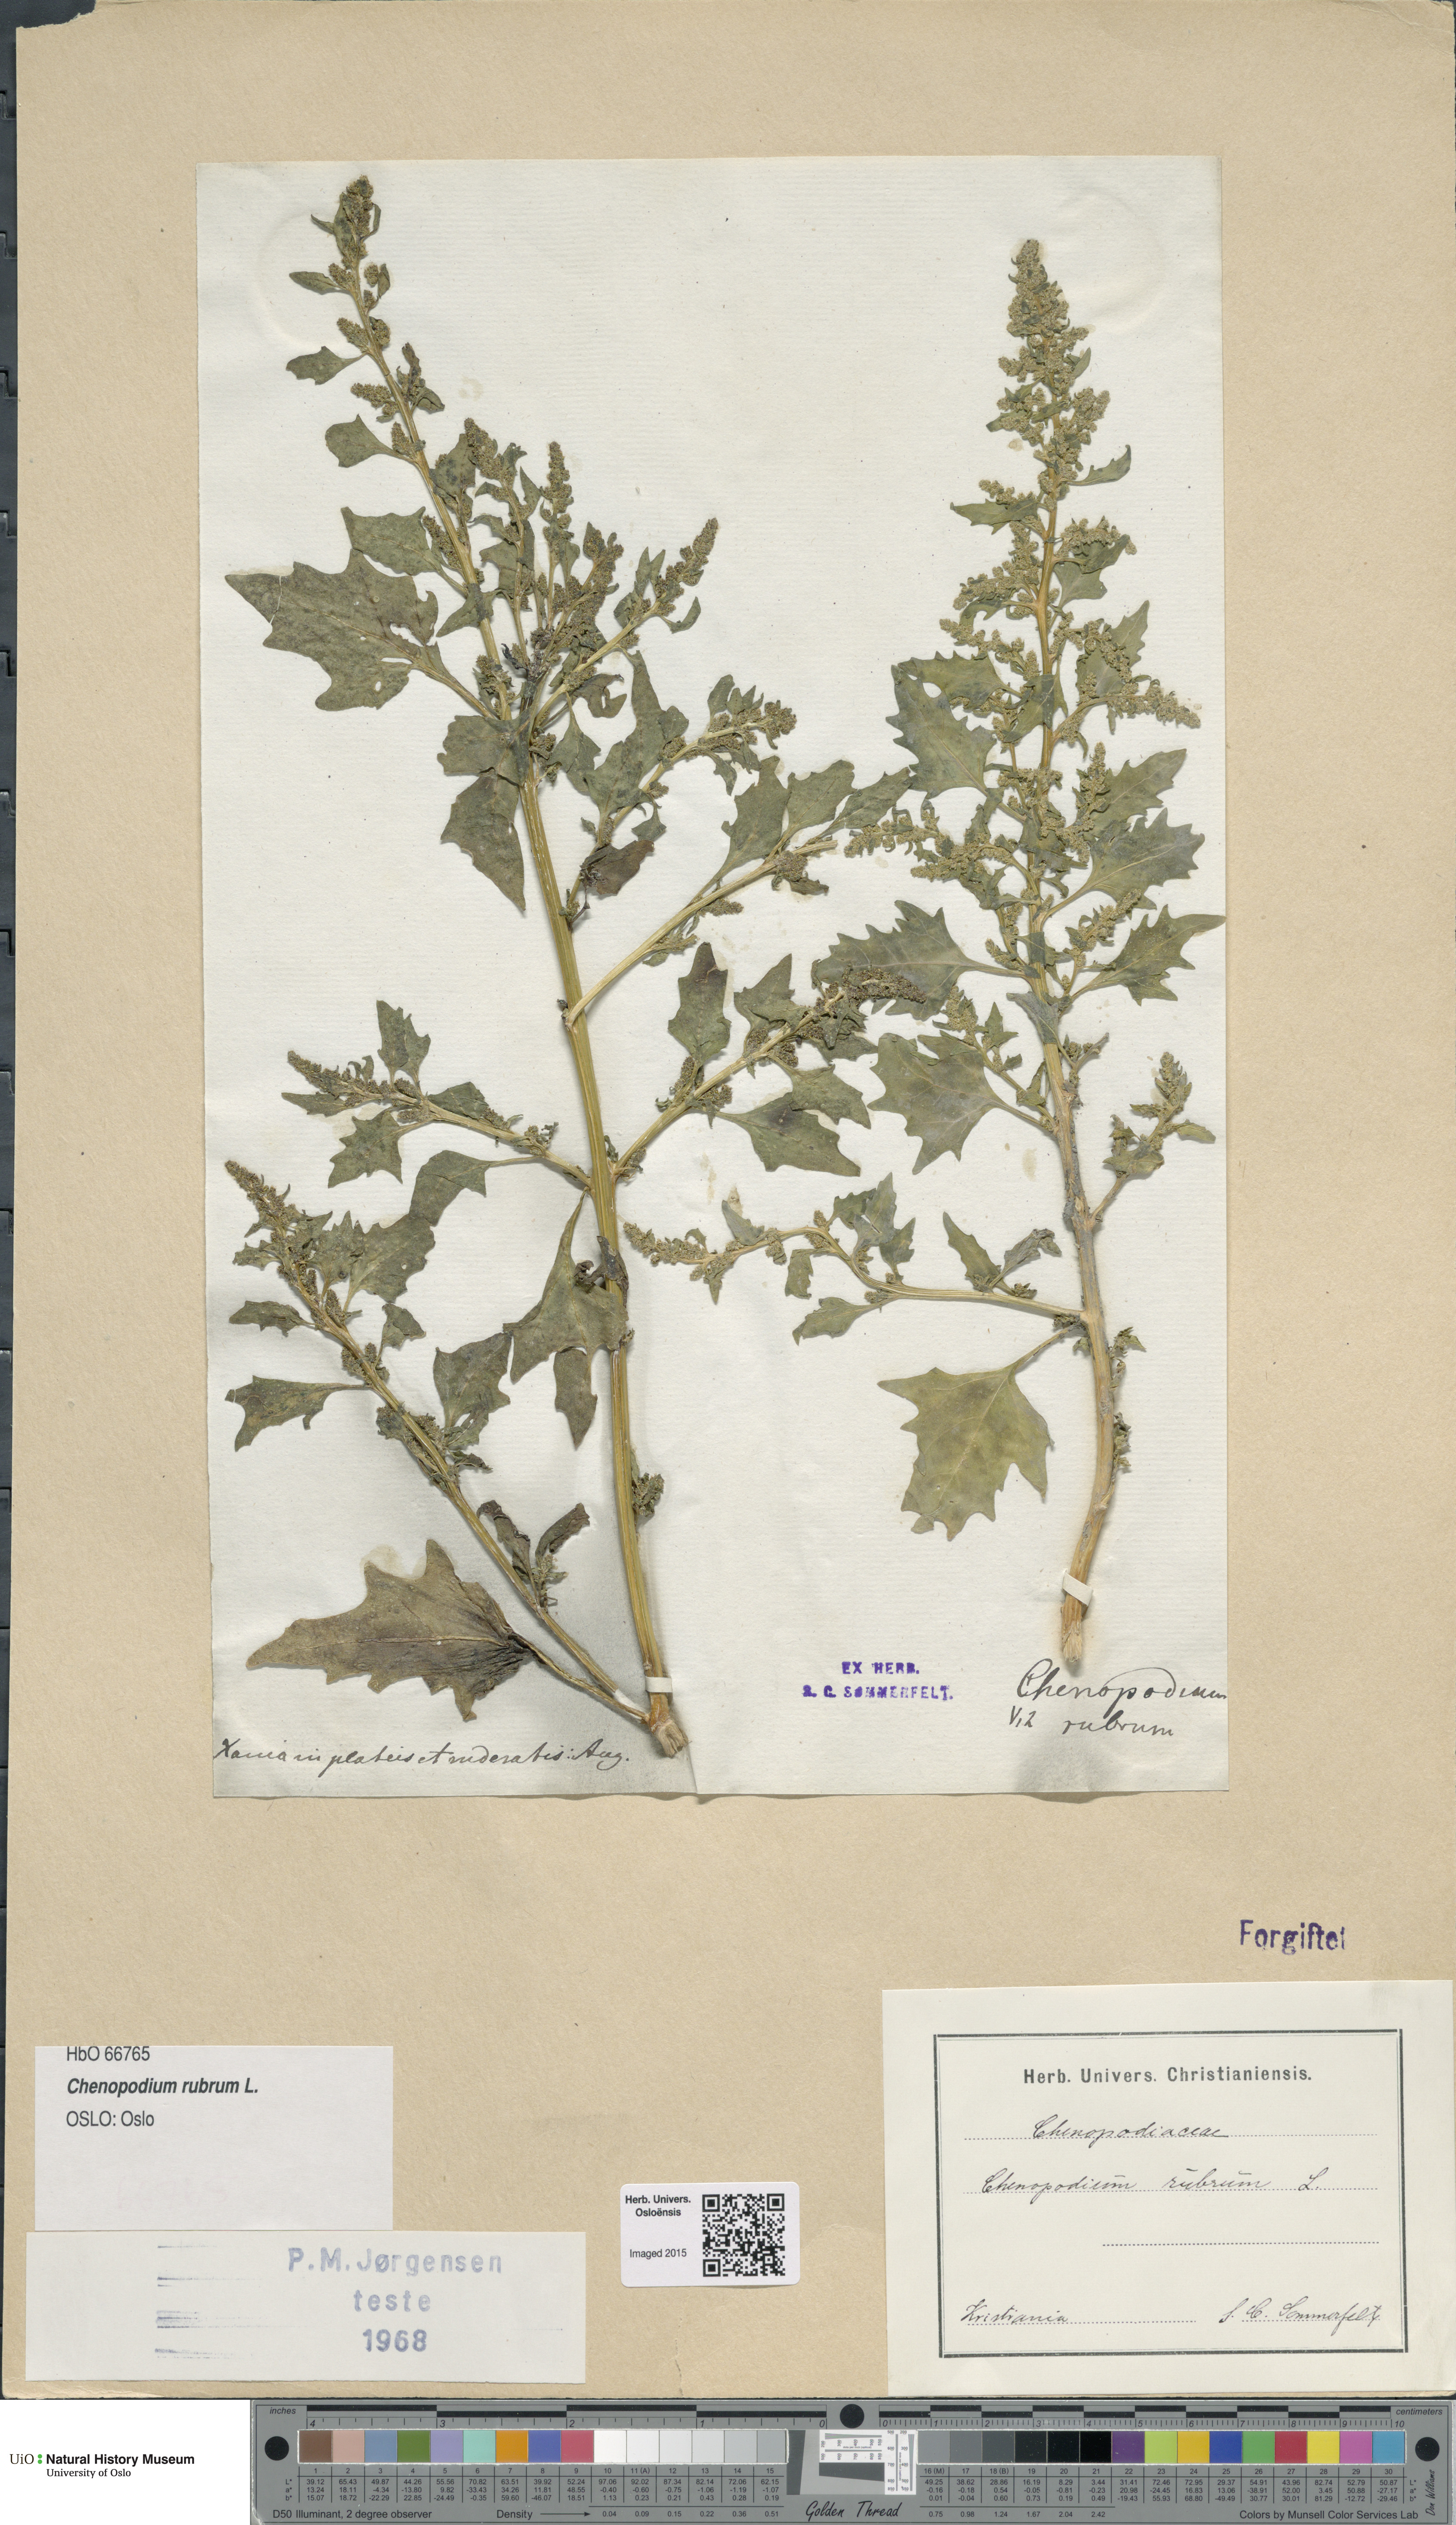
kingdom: Plantae
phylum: Tracheophyta
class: Magnoliopsida
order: Caryophyllales
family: Amaranthaceae
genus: Oxybasis
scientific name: Oxybasis rubra
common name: Red goosefoot
